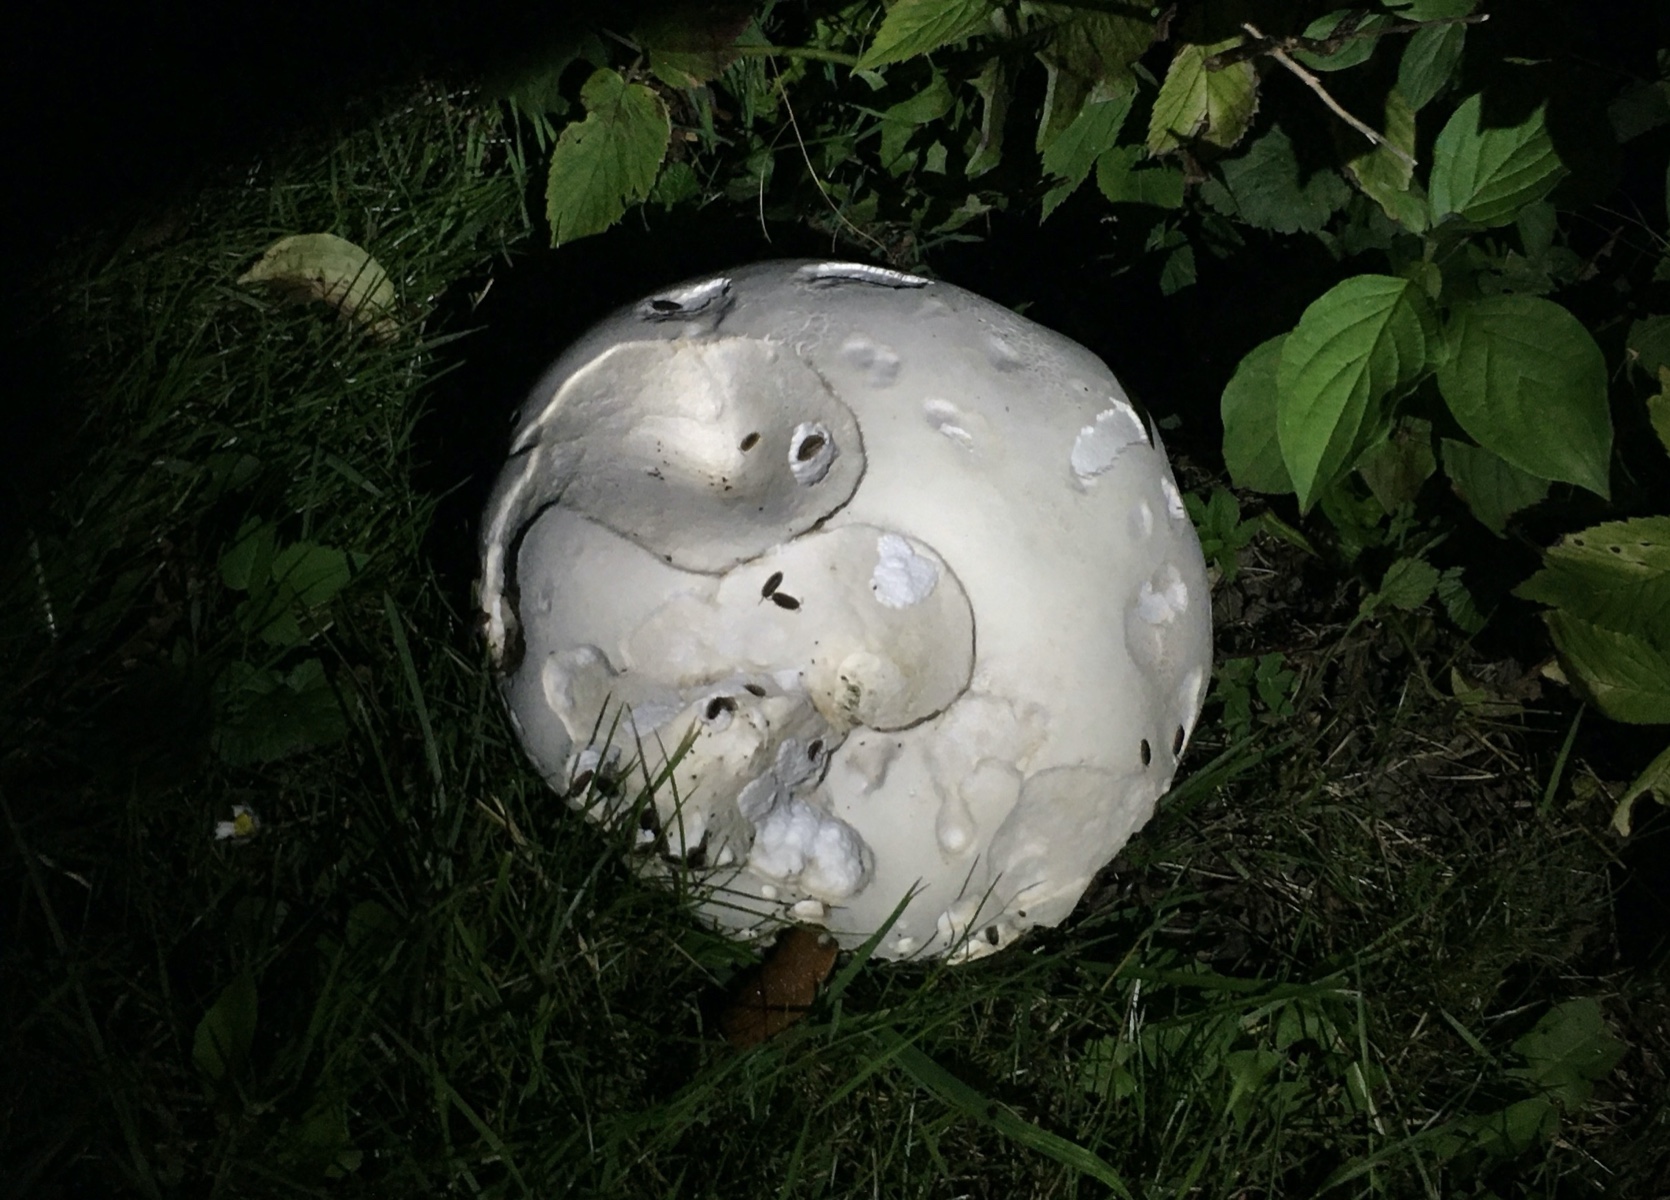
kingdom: Fungi
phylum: Basidiomycota
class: Agaricomycetes
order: Agaricales
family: Lycoperdaceae
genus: Calvatia
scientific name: Calvatia gigantea
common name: kæmpestøvbold
